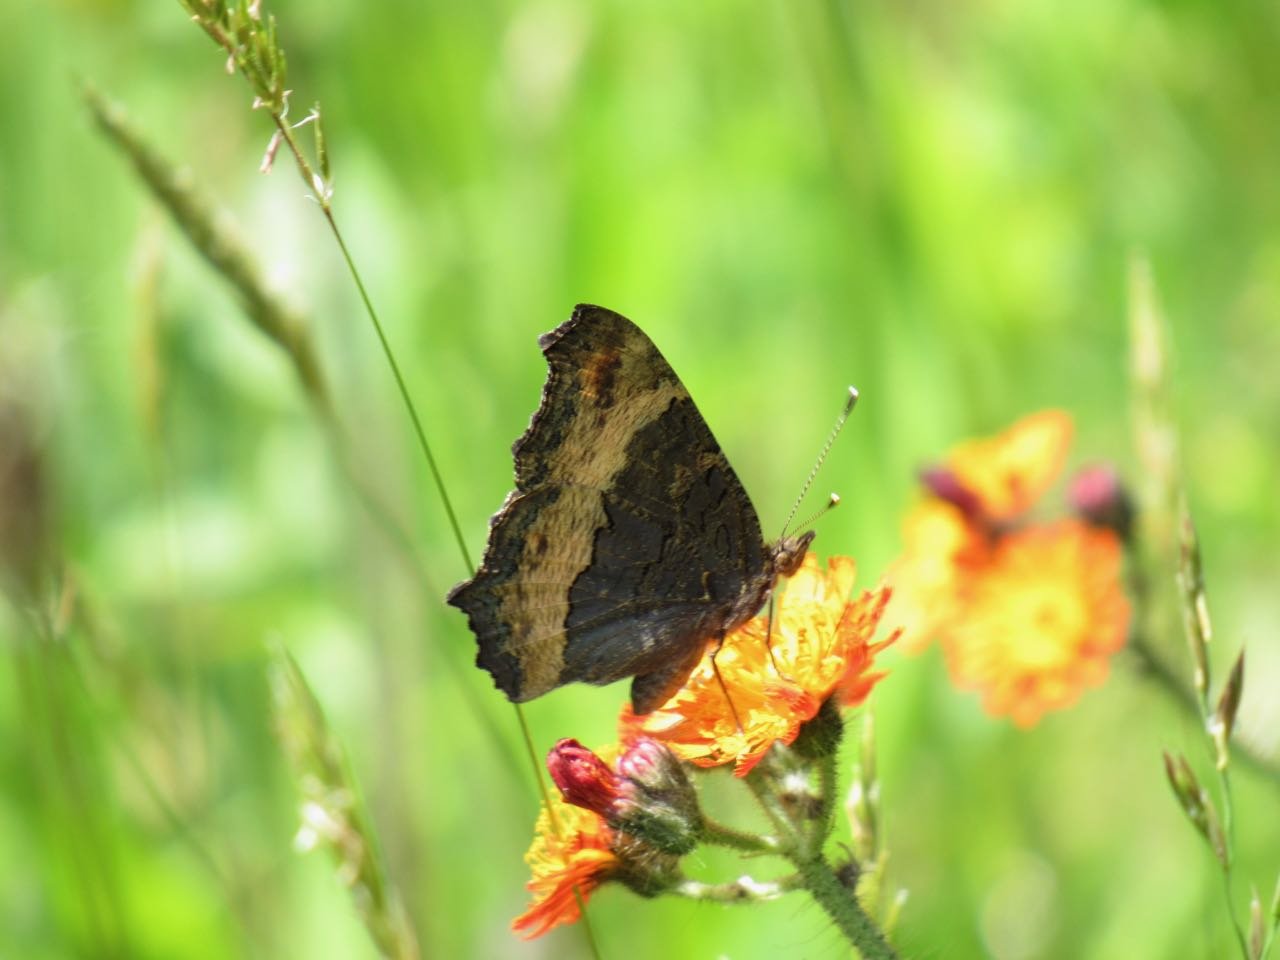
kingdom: Animalia
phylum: Arthropoda
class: Insecta
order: Lepidoptera
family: Nymphalidae
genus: Aglais
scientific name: Aglais milberti
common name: Milbert's Tortoiseshell
